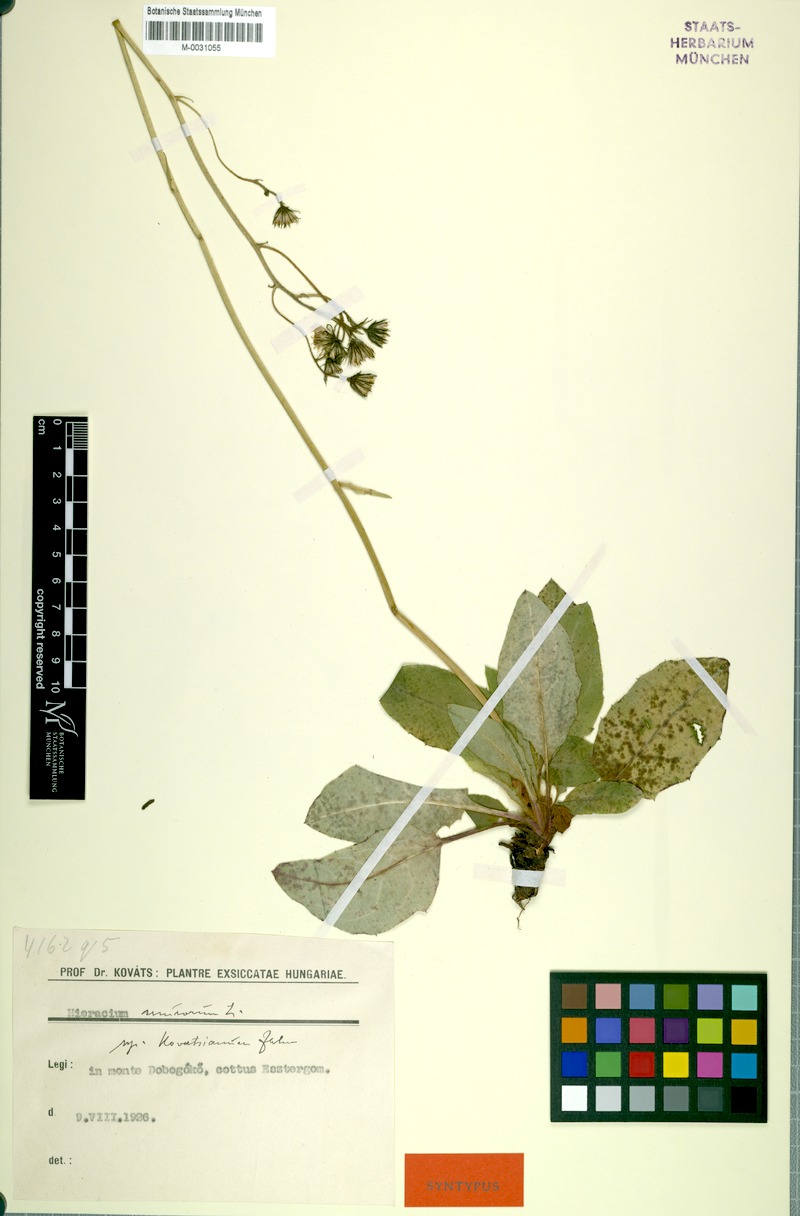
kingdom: Plantae
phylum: Tracheophyta
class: Magnoliopsida
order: Asterales
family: Asteraceae
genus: Hieracium
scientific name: Hieracium murorum
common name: Wall hawkweed
